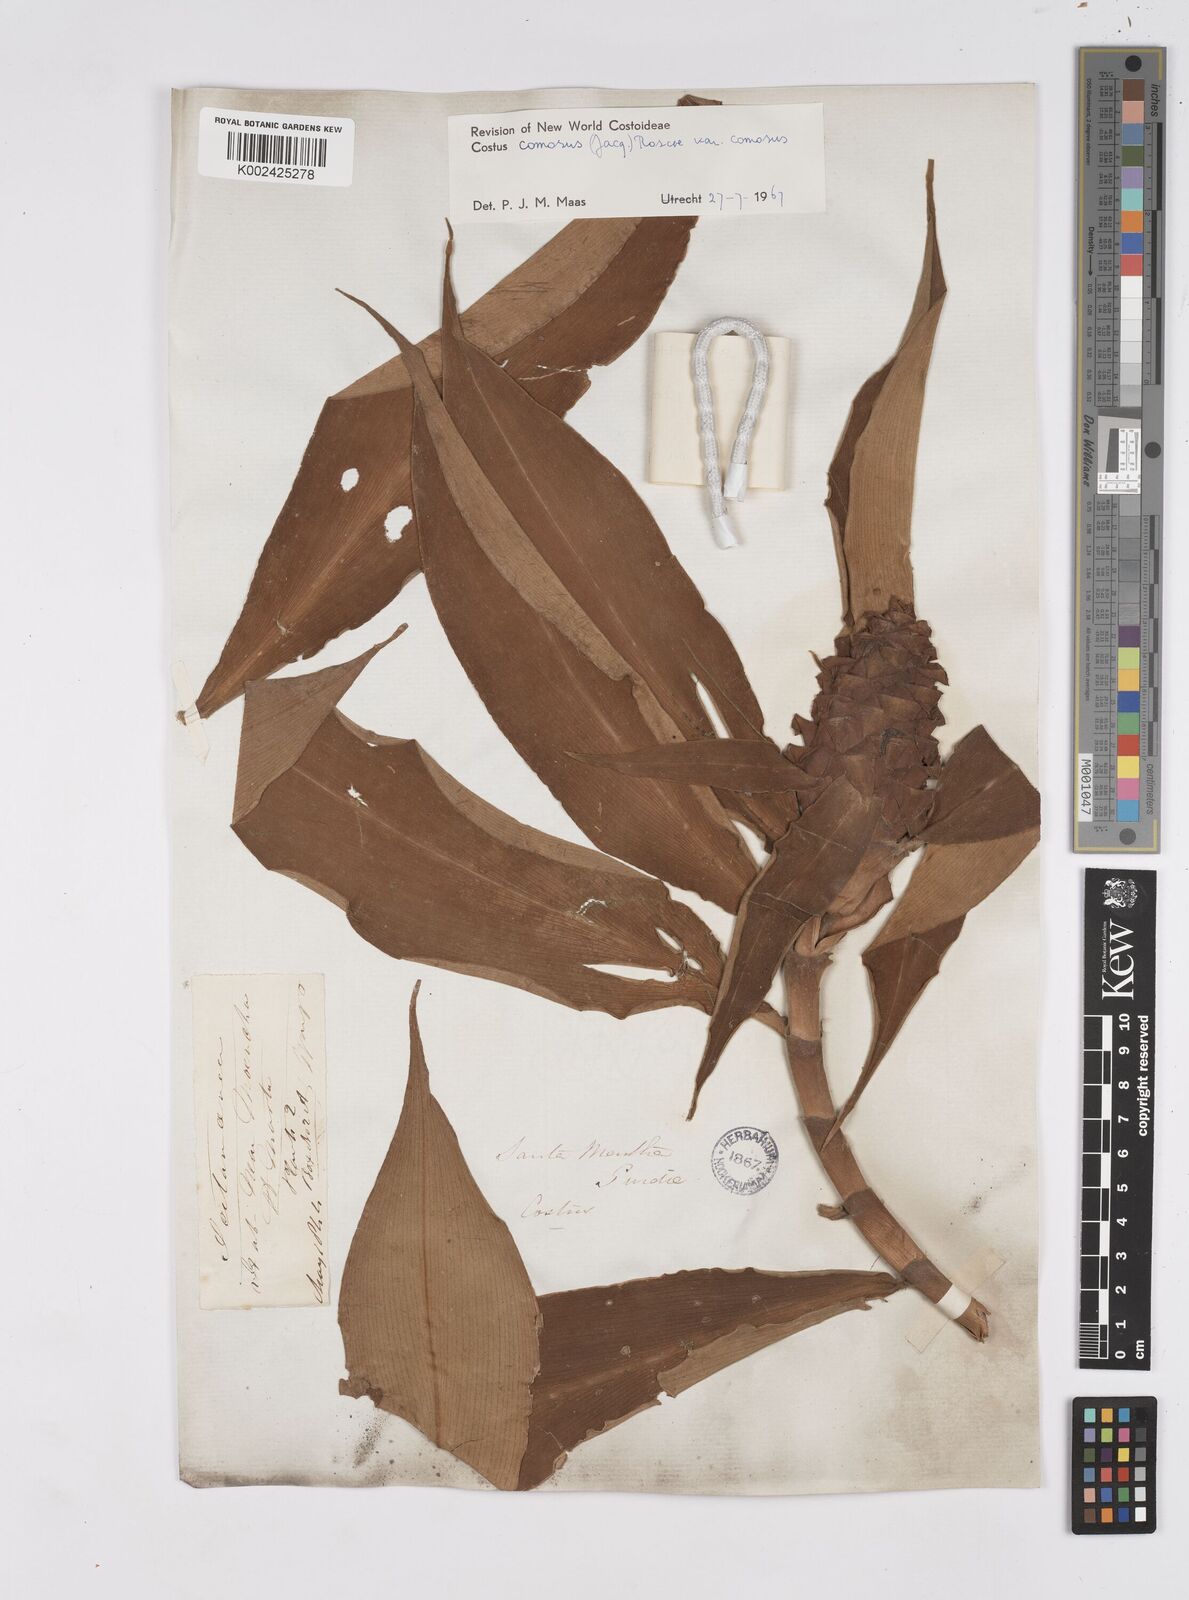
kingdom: Plantae
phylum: Tracheophyta
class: Liliopsida
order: Zingiberales
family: Costaceae
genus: Costus
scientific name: Costus comosus
